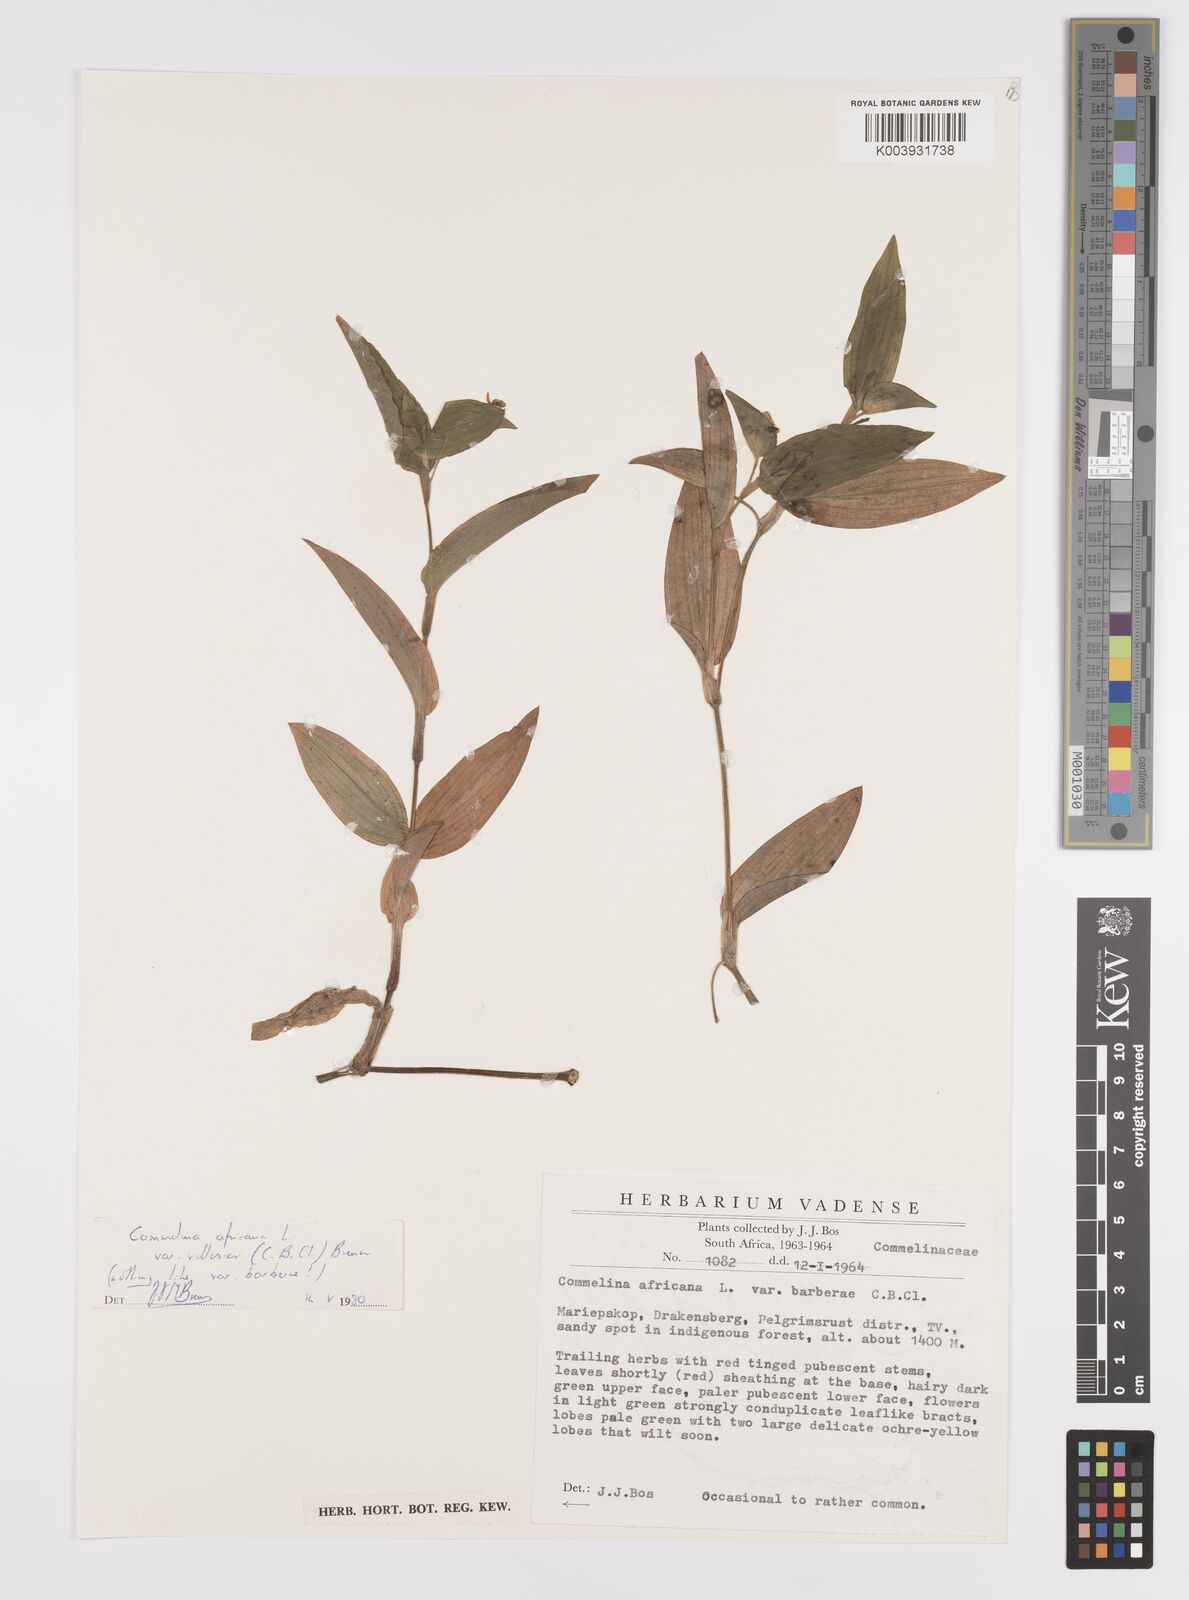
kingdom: Plantae
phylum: Tracheophyta
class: Liliopsida
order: Commelinales
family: Commelinaceae
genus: Commelina
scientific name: Commelina africana
